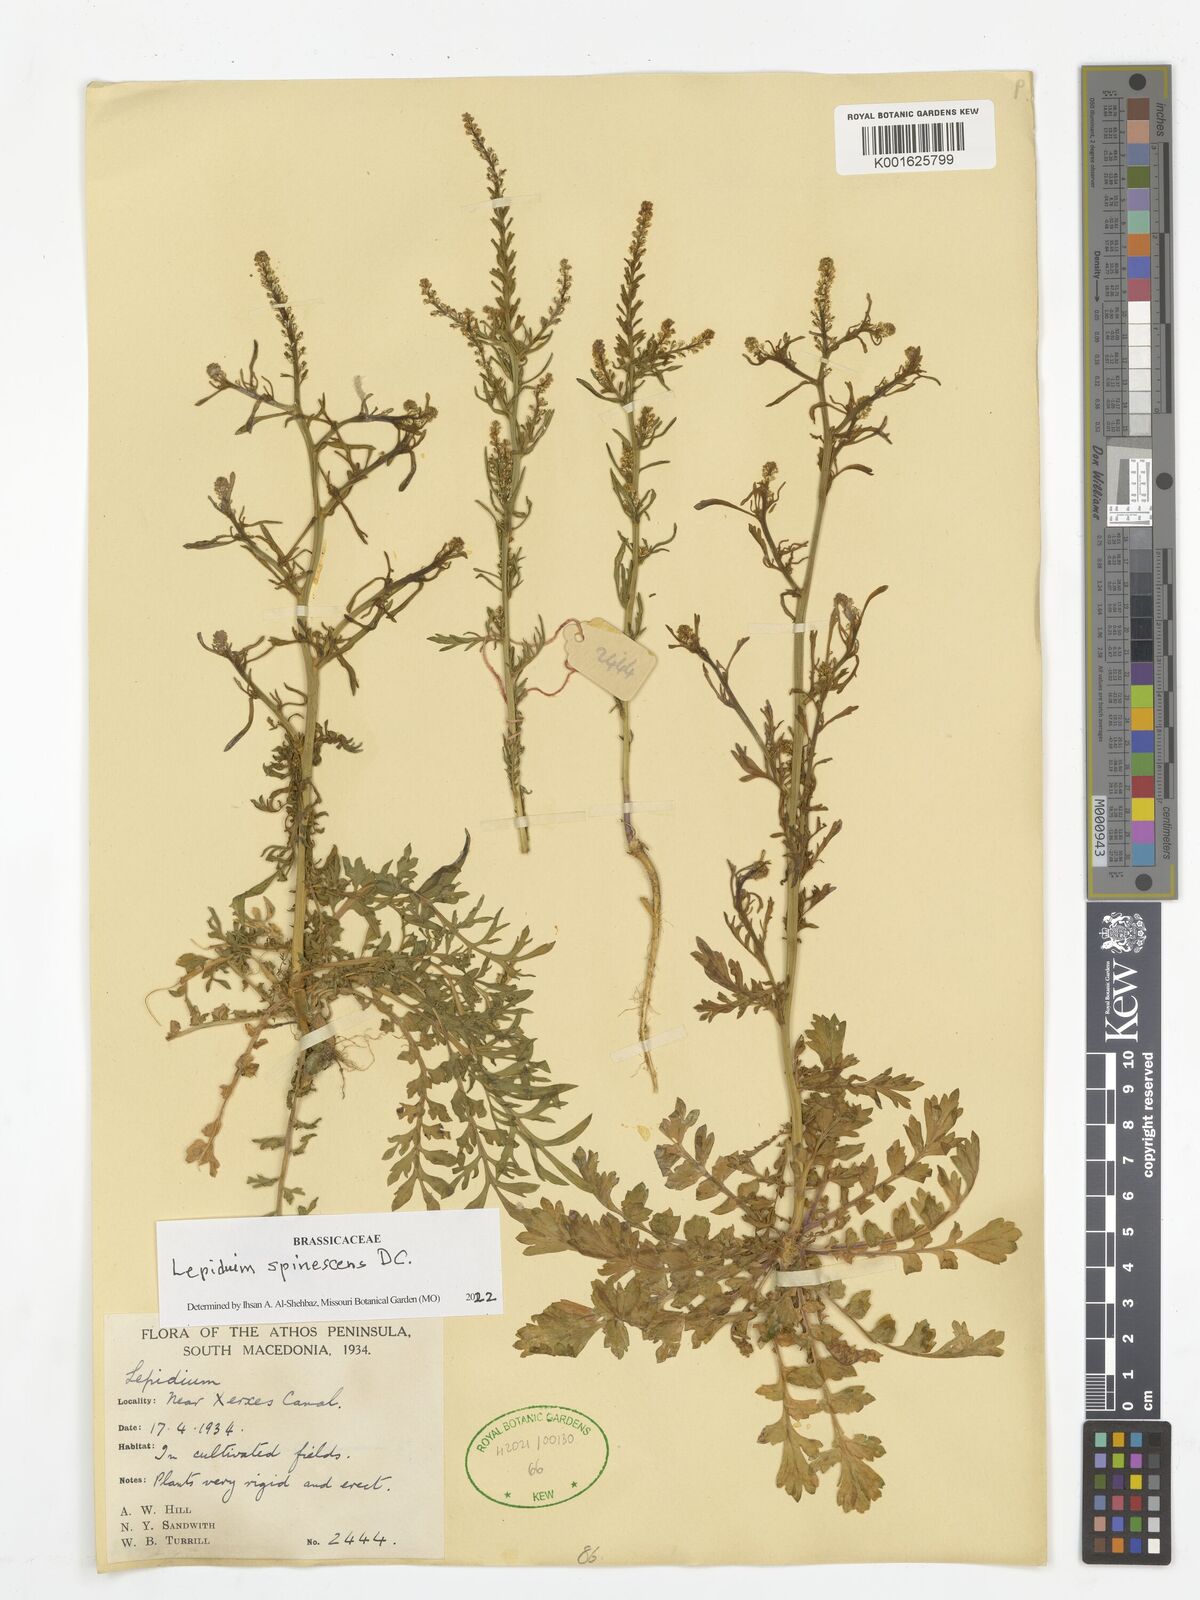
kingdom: Plantae
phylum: Tracheophyta
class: Magnoliopsida
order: Brassicales
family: Brassicaceae
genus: Lepidium
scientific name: Lepidium sativum
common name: Garden cress
